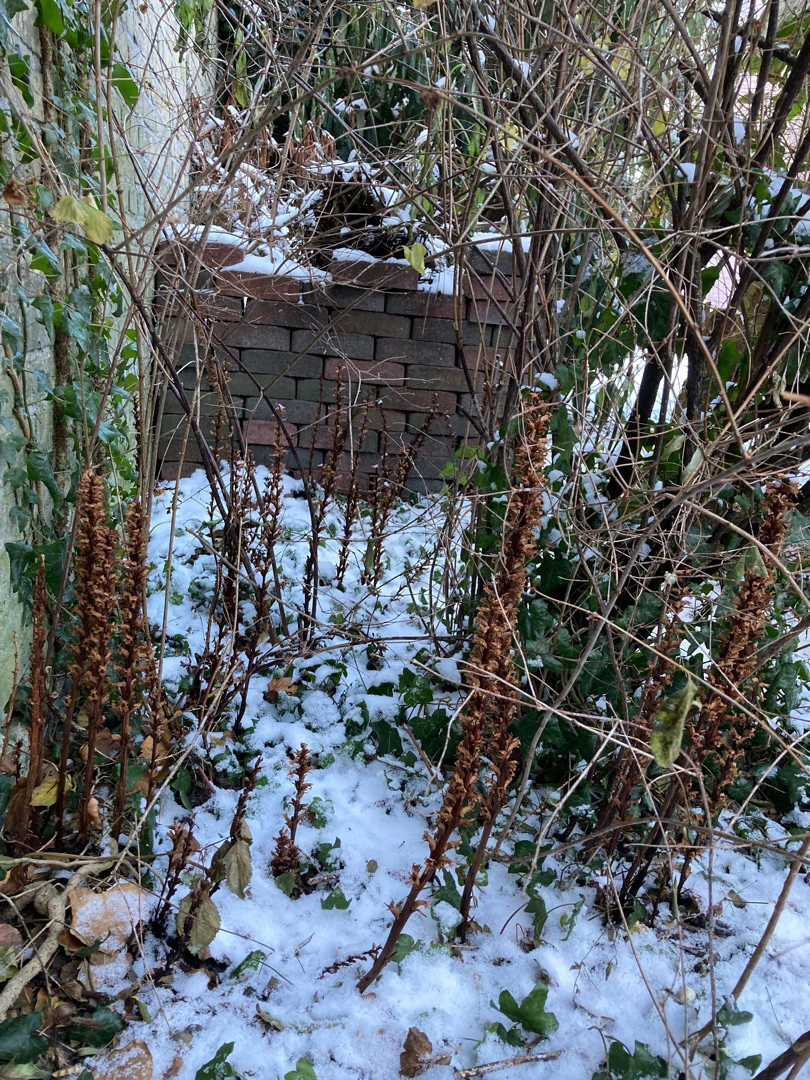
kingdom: Plantae
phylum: Tracheophyta
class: Magnoliopsida
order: Lamiales
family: Orobanchaceae
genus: Orobanche
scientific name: Orobanche hederae
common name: Vedbend-gyvelkvæler
